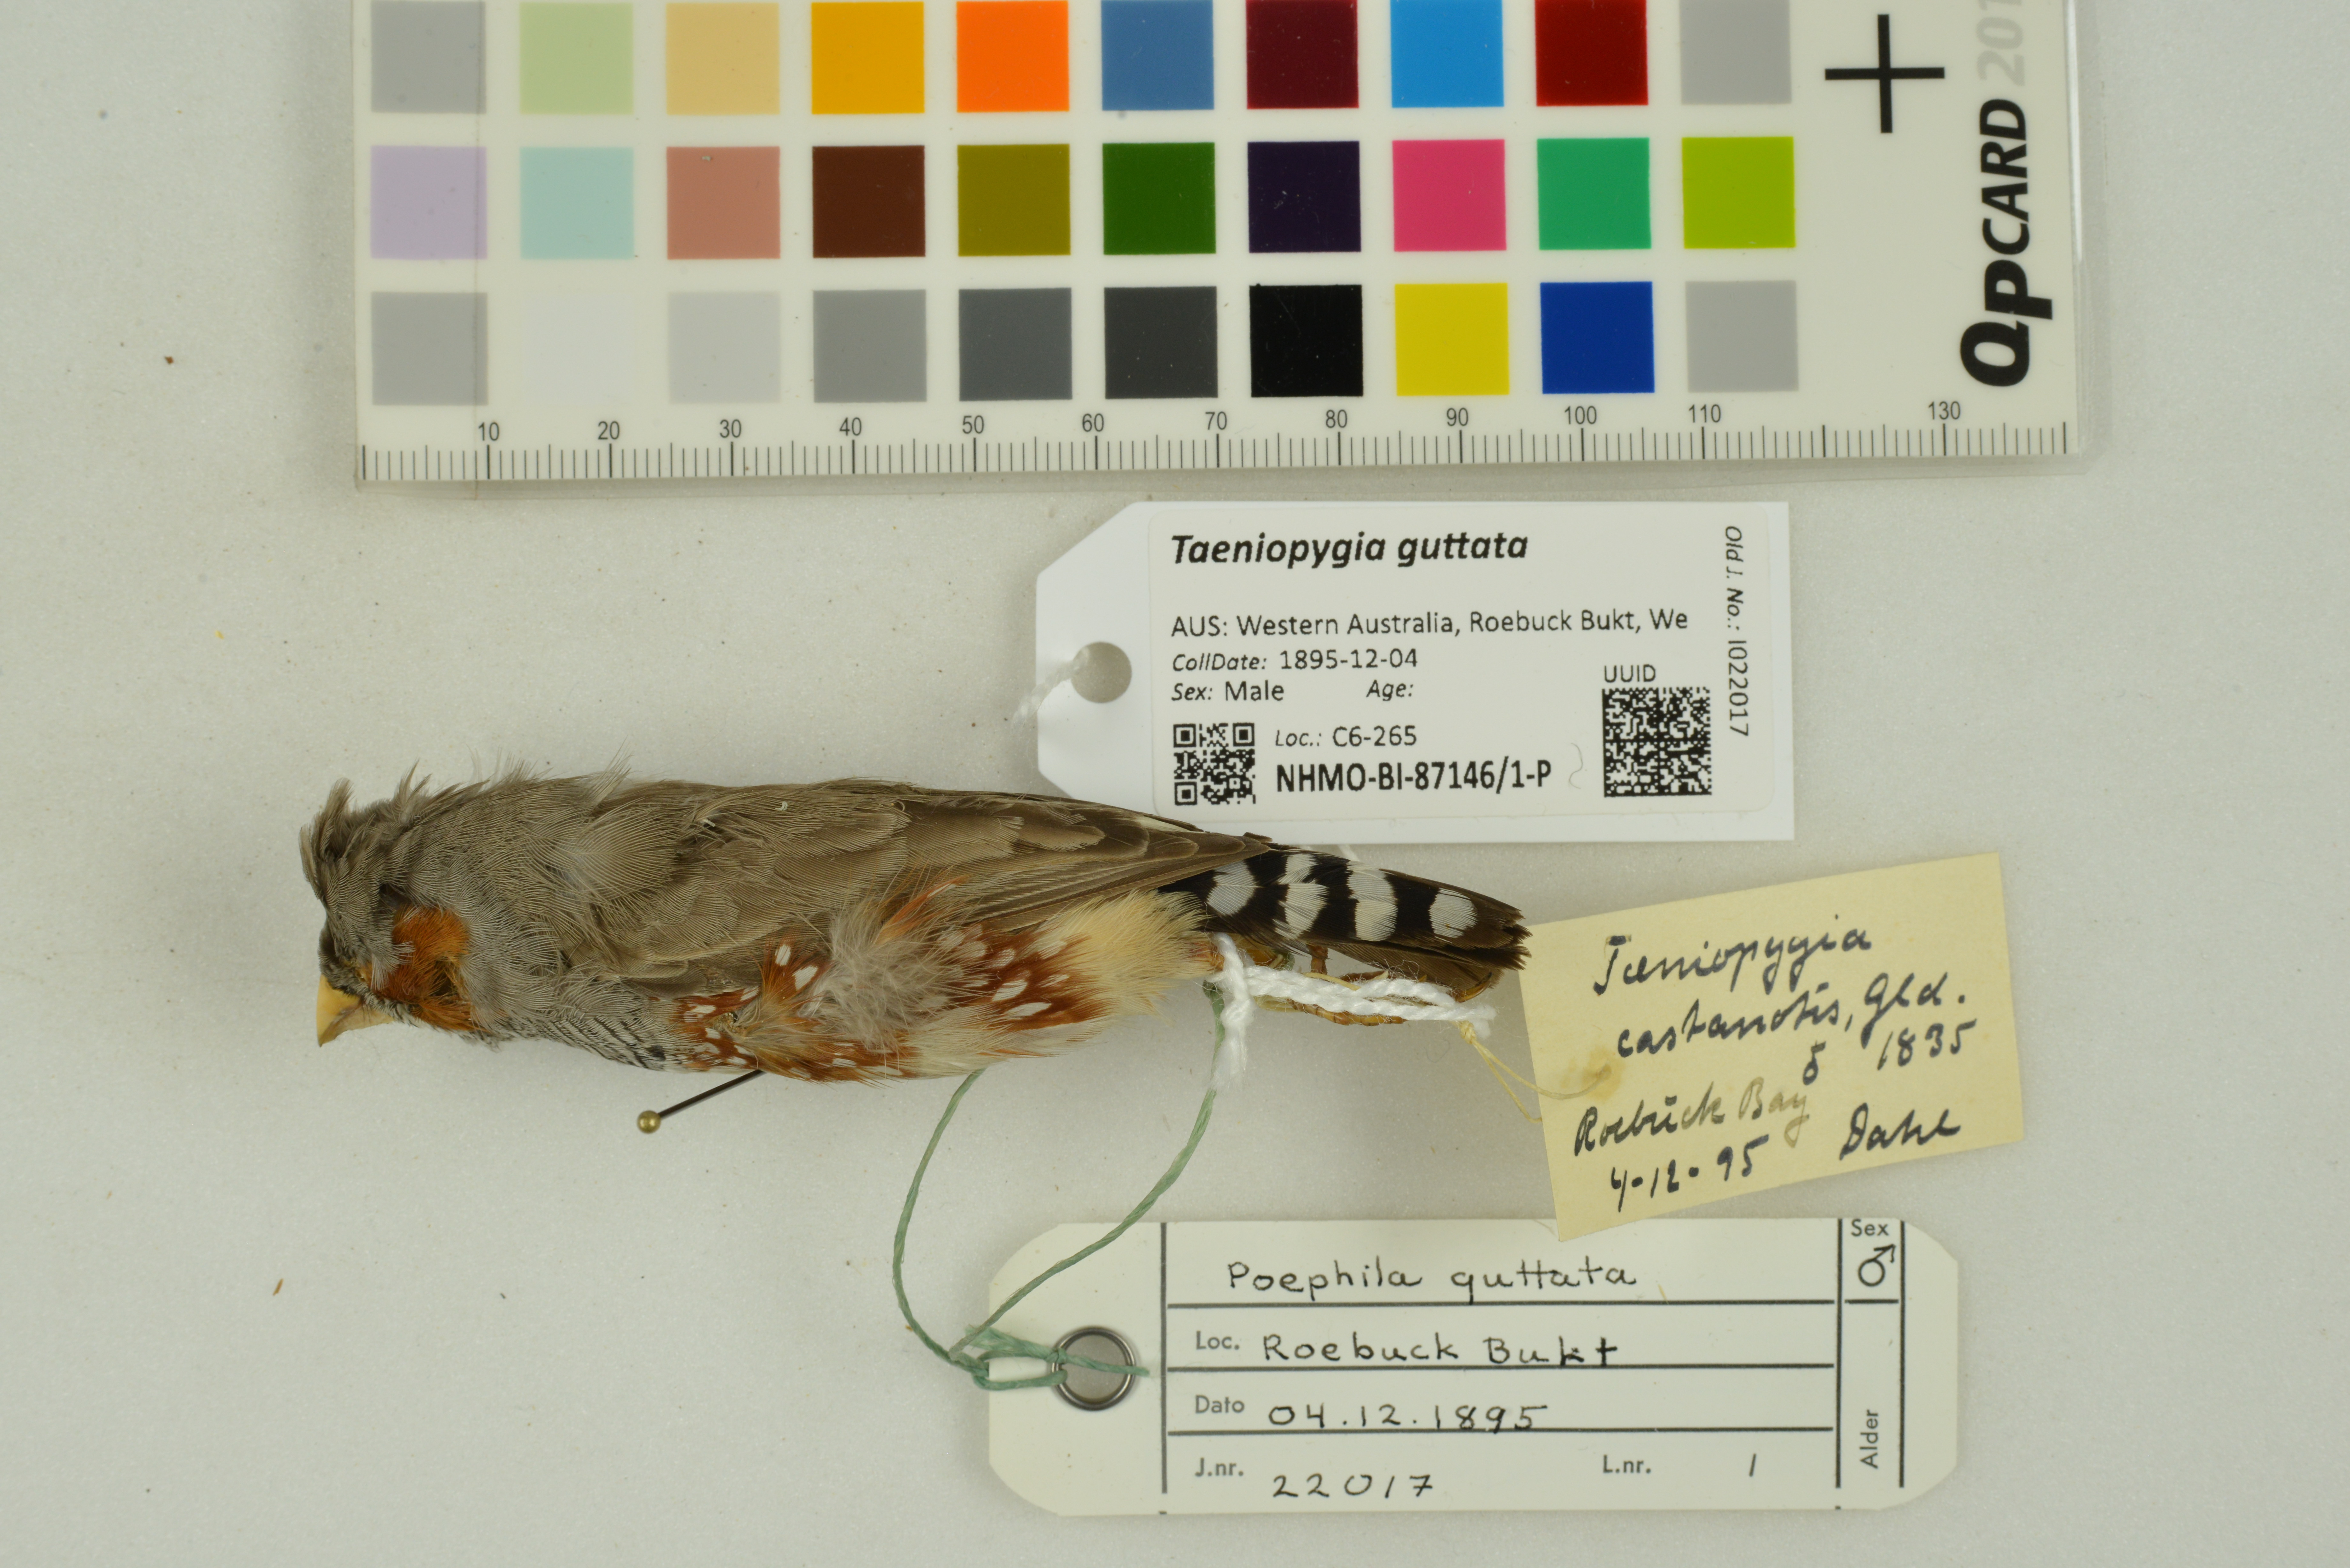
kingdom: Animalia
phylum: Chordata
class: Aves
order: Passeriformes
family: Estrildidae
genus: Taeniopygia
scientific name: Taeniopygia guttata
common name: Zebra finch
